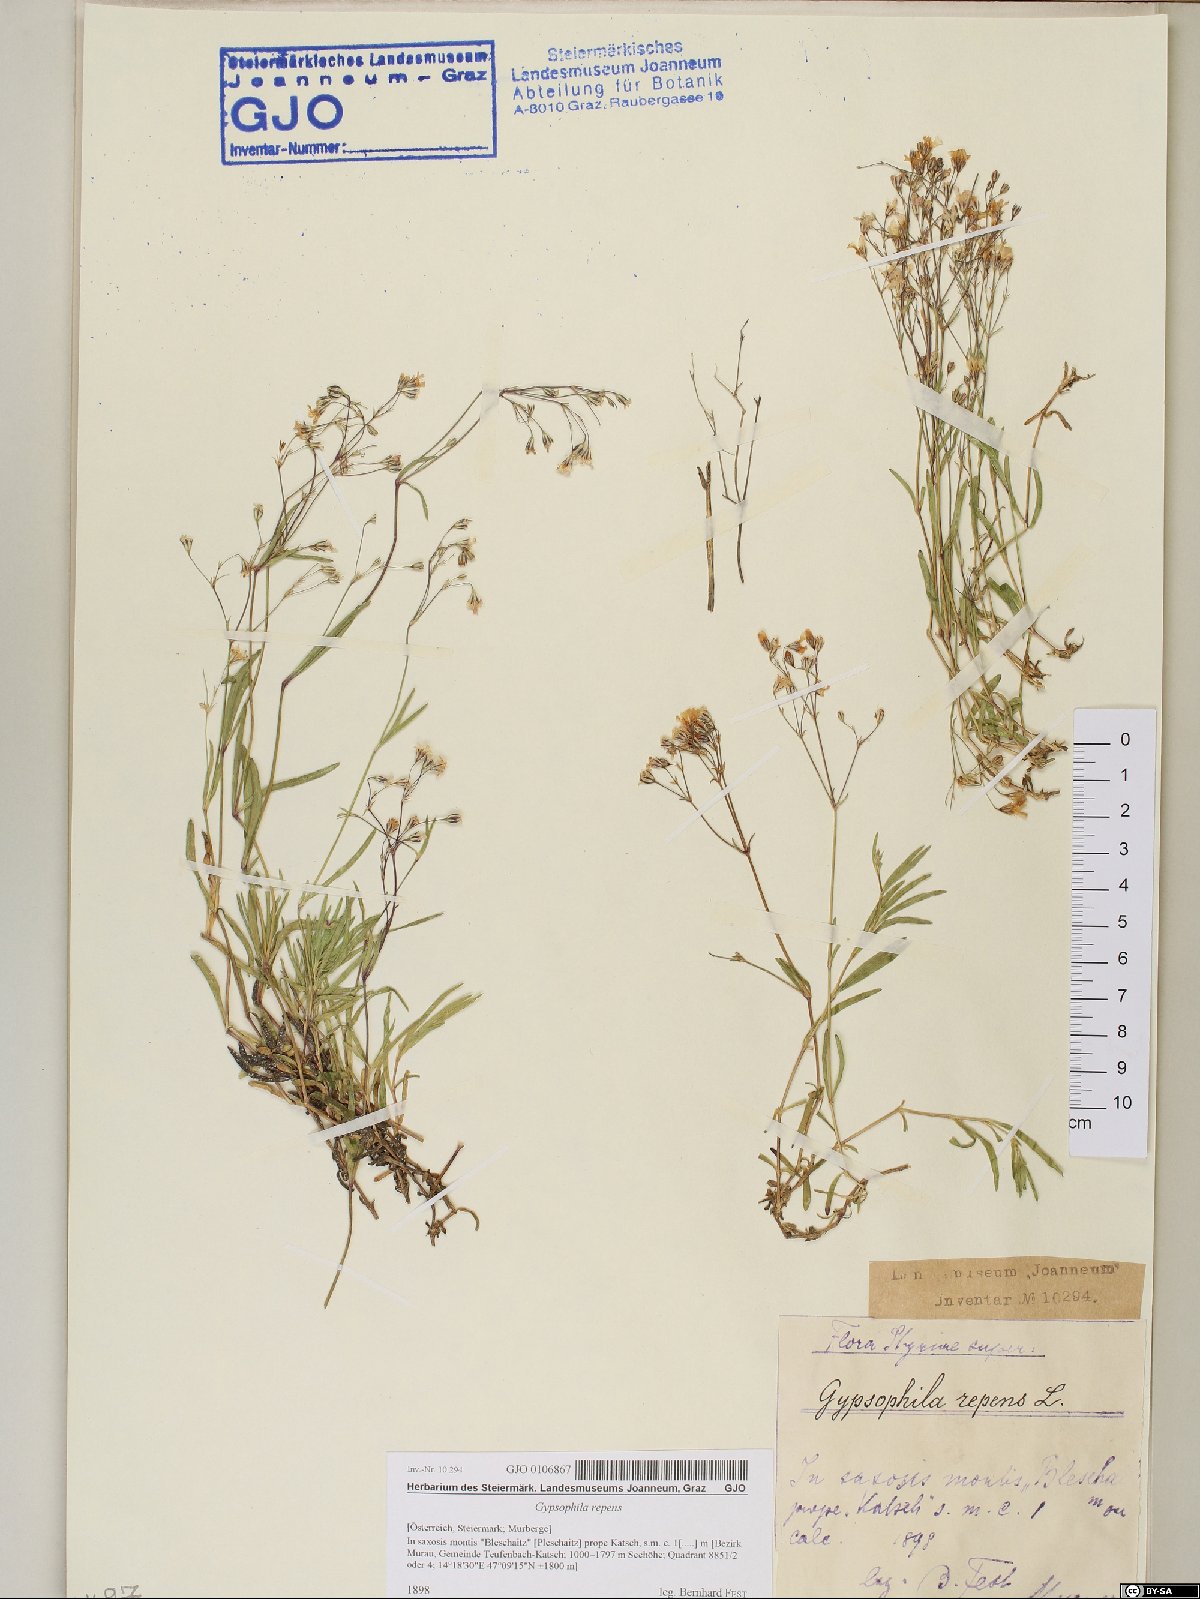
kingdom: Plantae
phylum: Tracheophyta
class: Magnoliopsida
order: Caryophyllales
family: Caryophyllaceae
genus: Gypsophila
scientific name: Gypsophila repens
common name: Creeping baby's-breath
